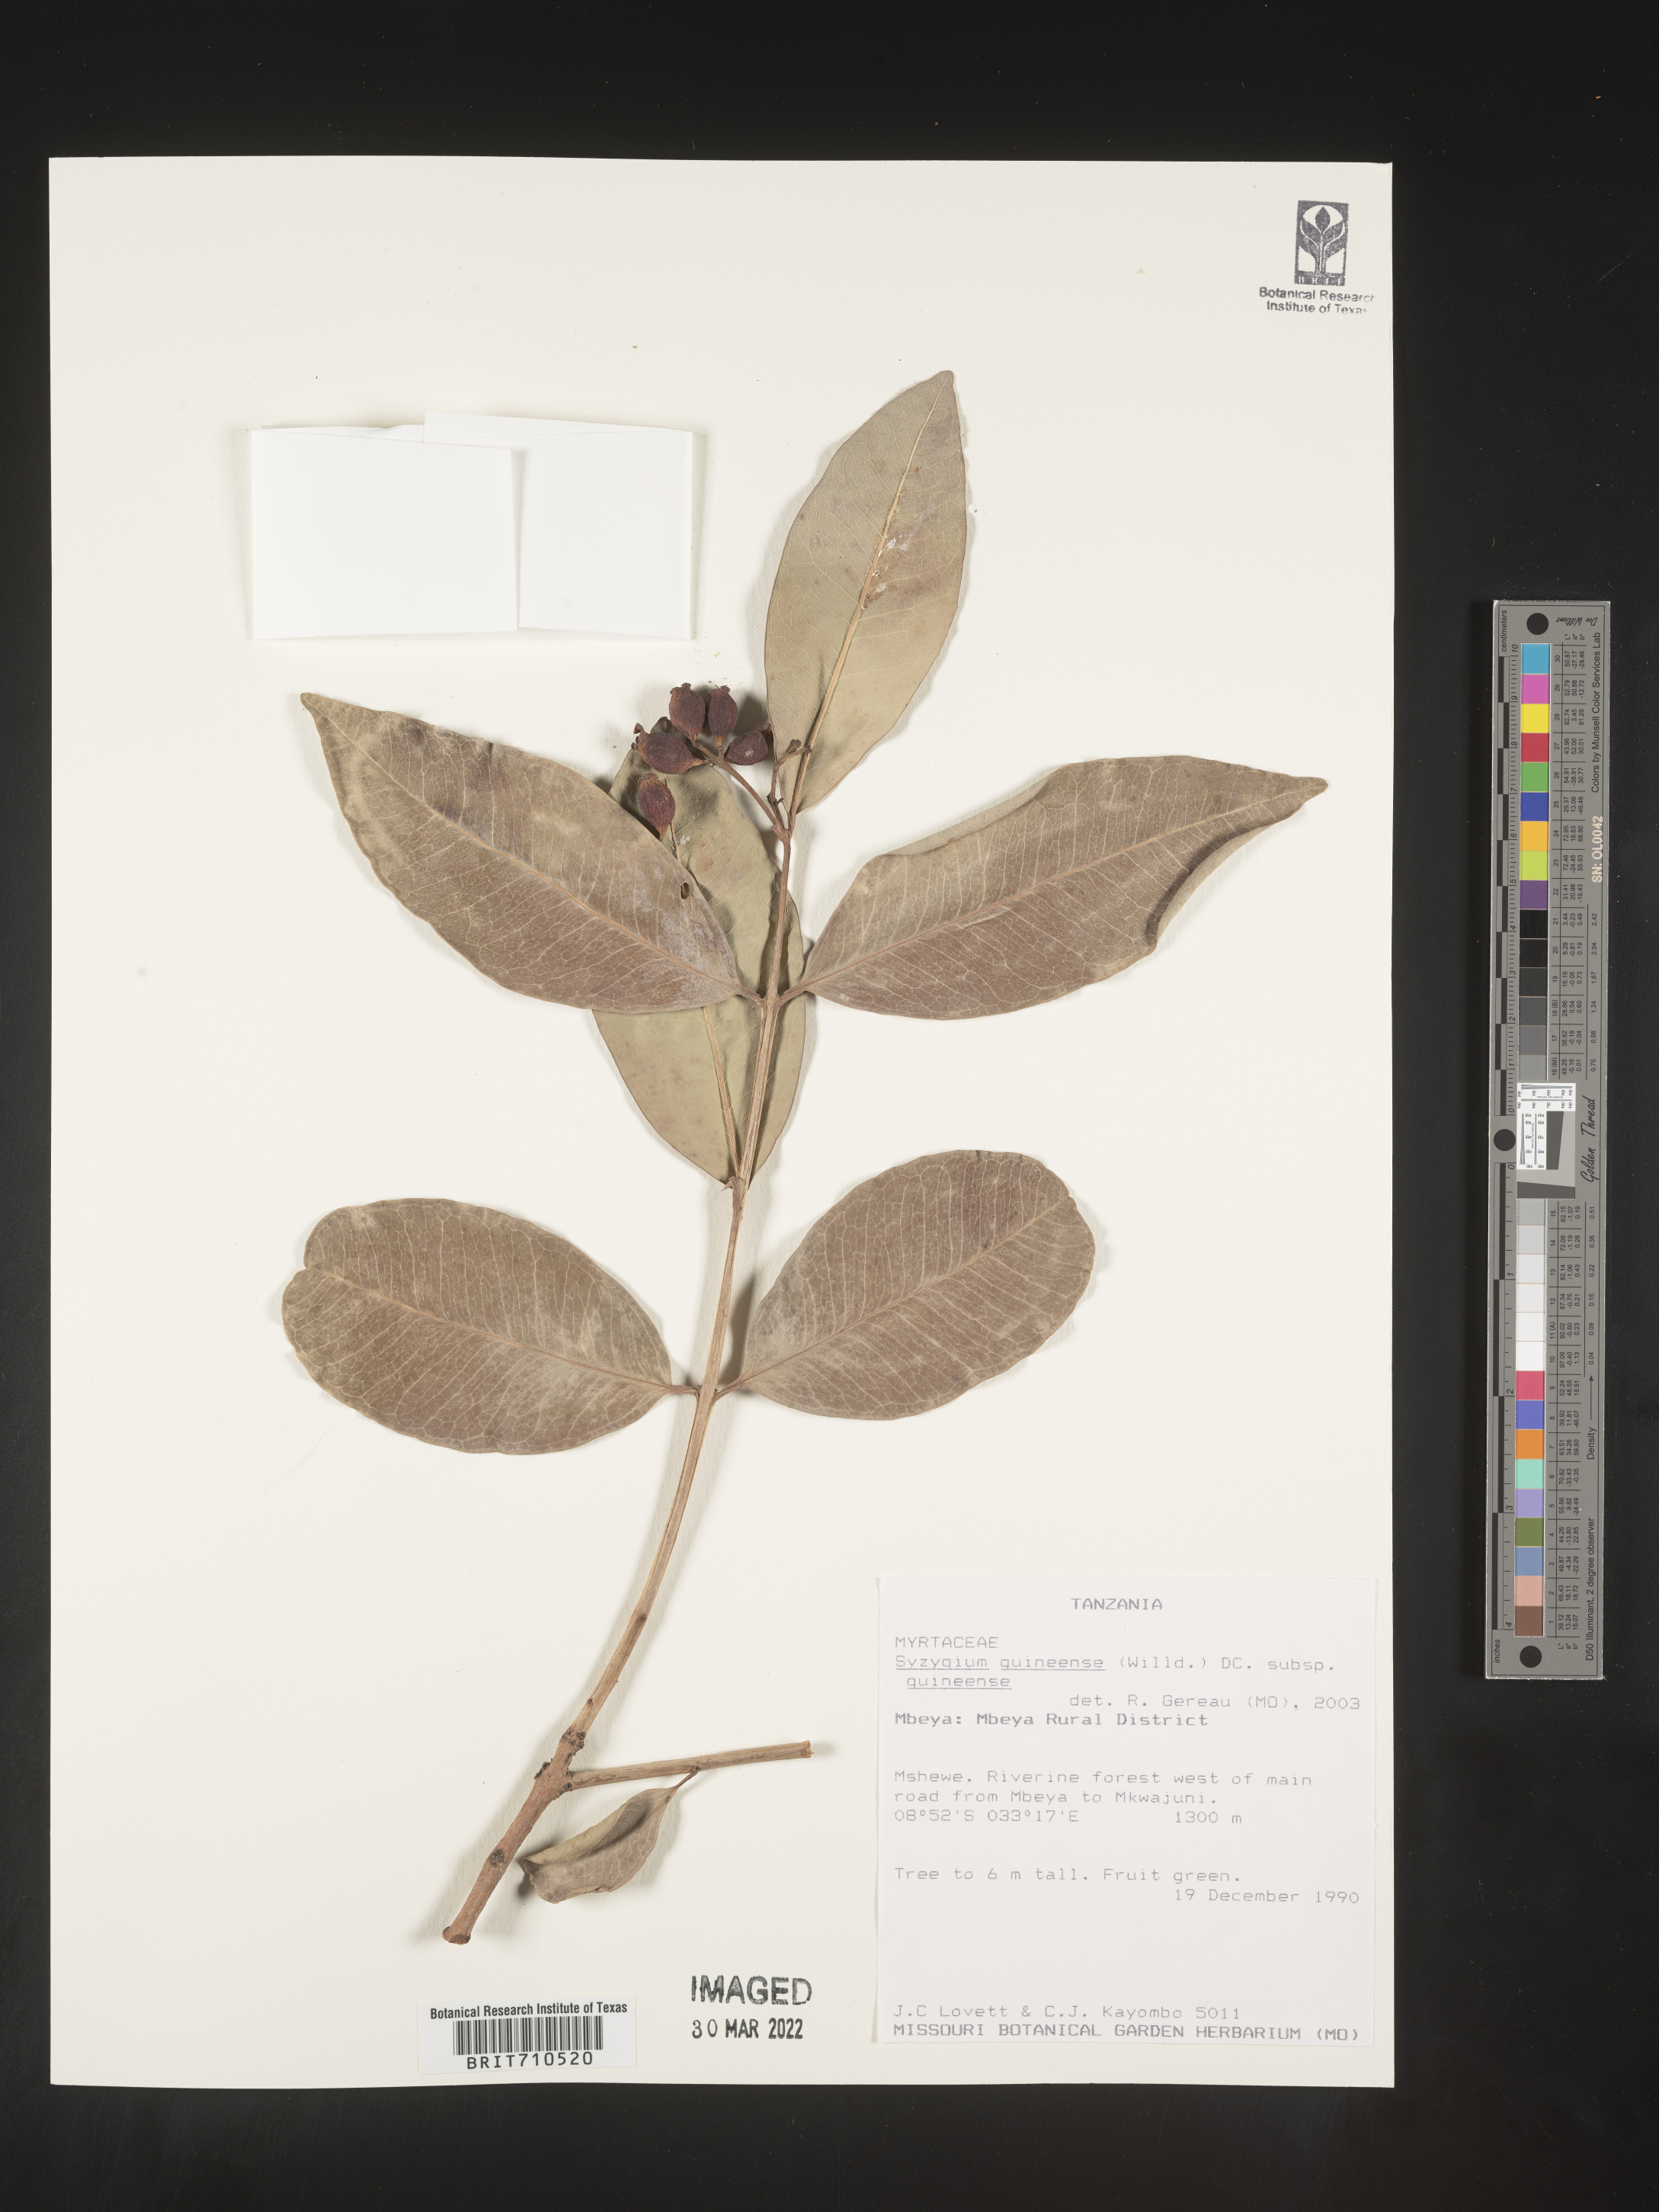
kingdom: Plantae
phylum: Tracheophyta
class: Magnoliopsida
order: Myrtales
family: Myrtaceae
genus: Syzygium
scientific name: Syzygium
